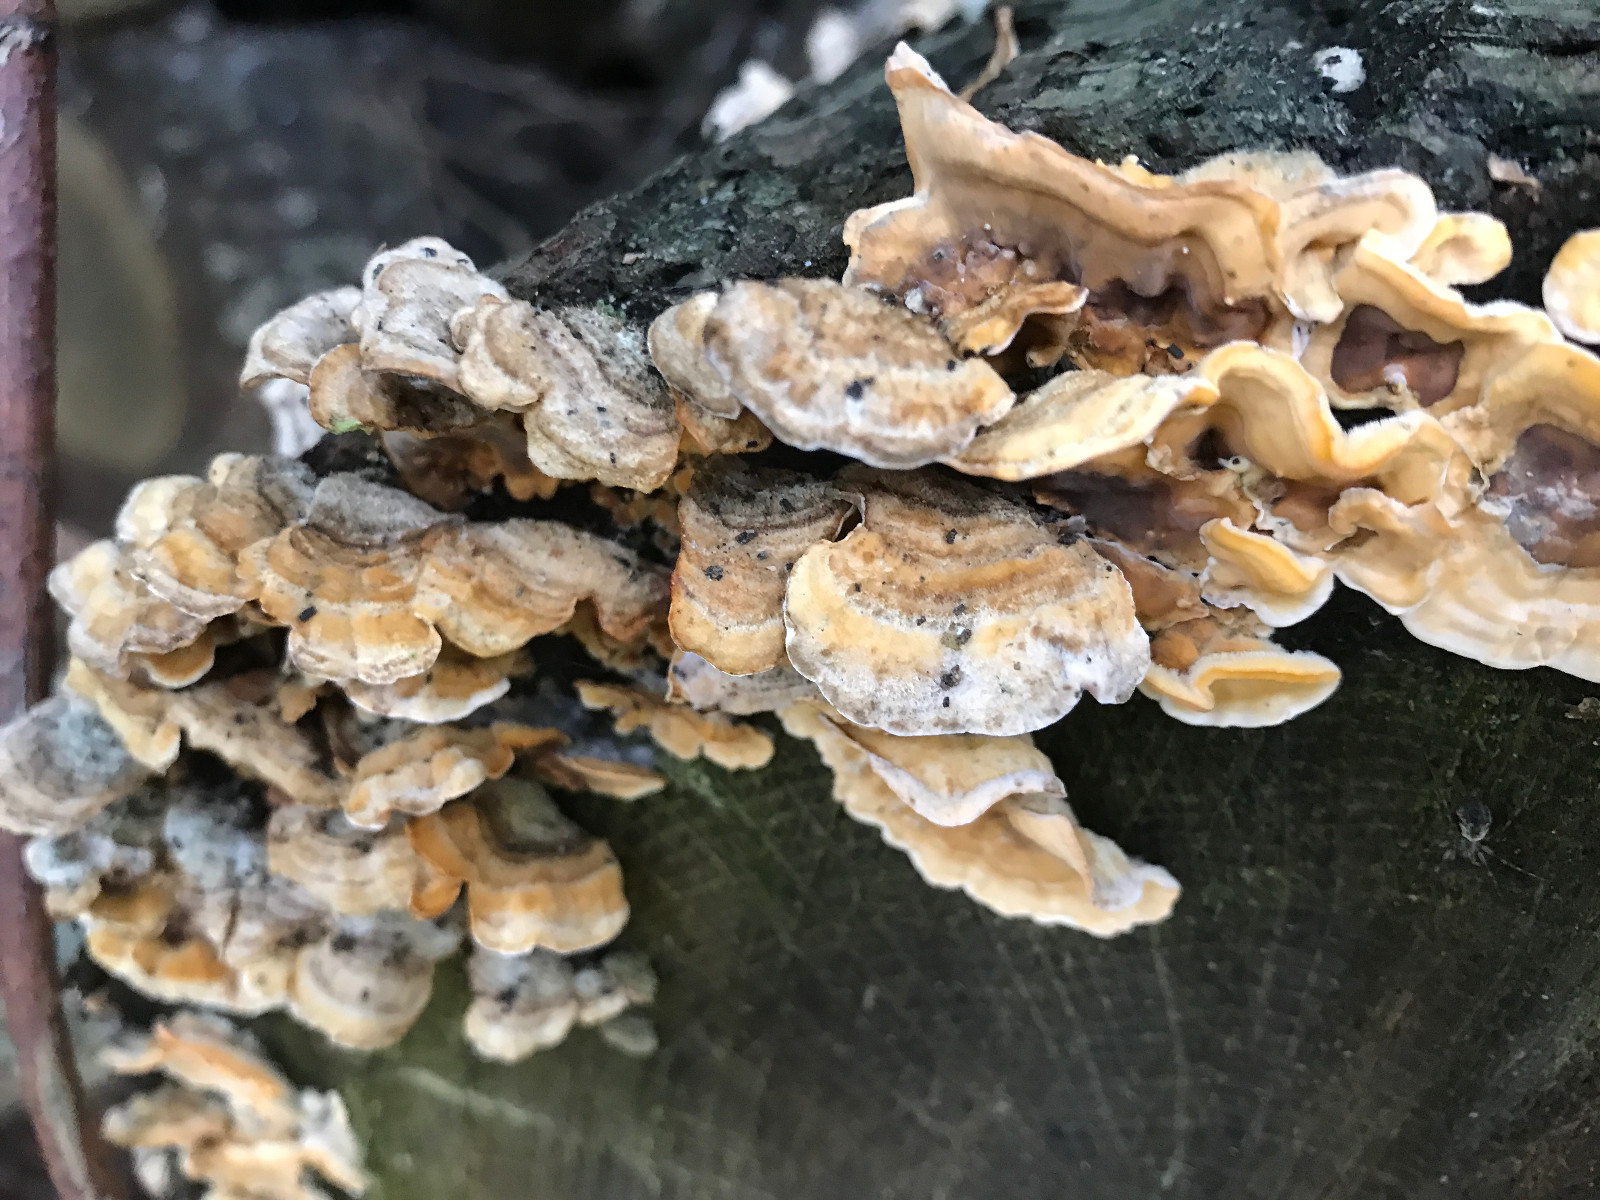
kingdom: Fungi
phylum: Basidiomycota
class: Agaricomycetes
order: Russulales
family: Stereaceae
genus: Stereum
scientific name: Stereum hirsutum
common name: håret lædersvamp
